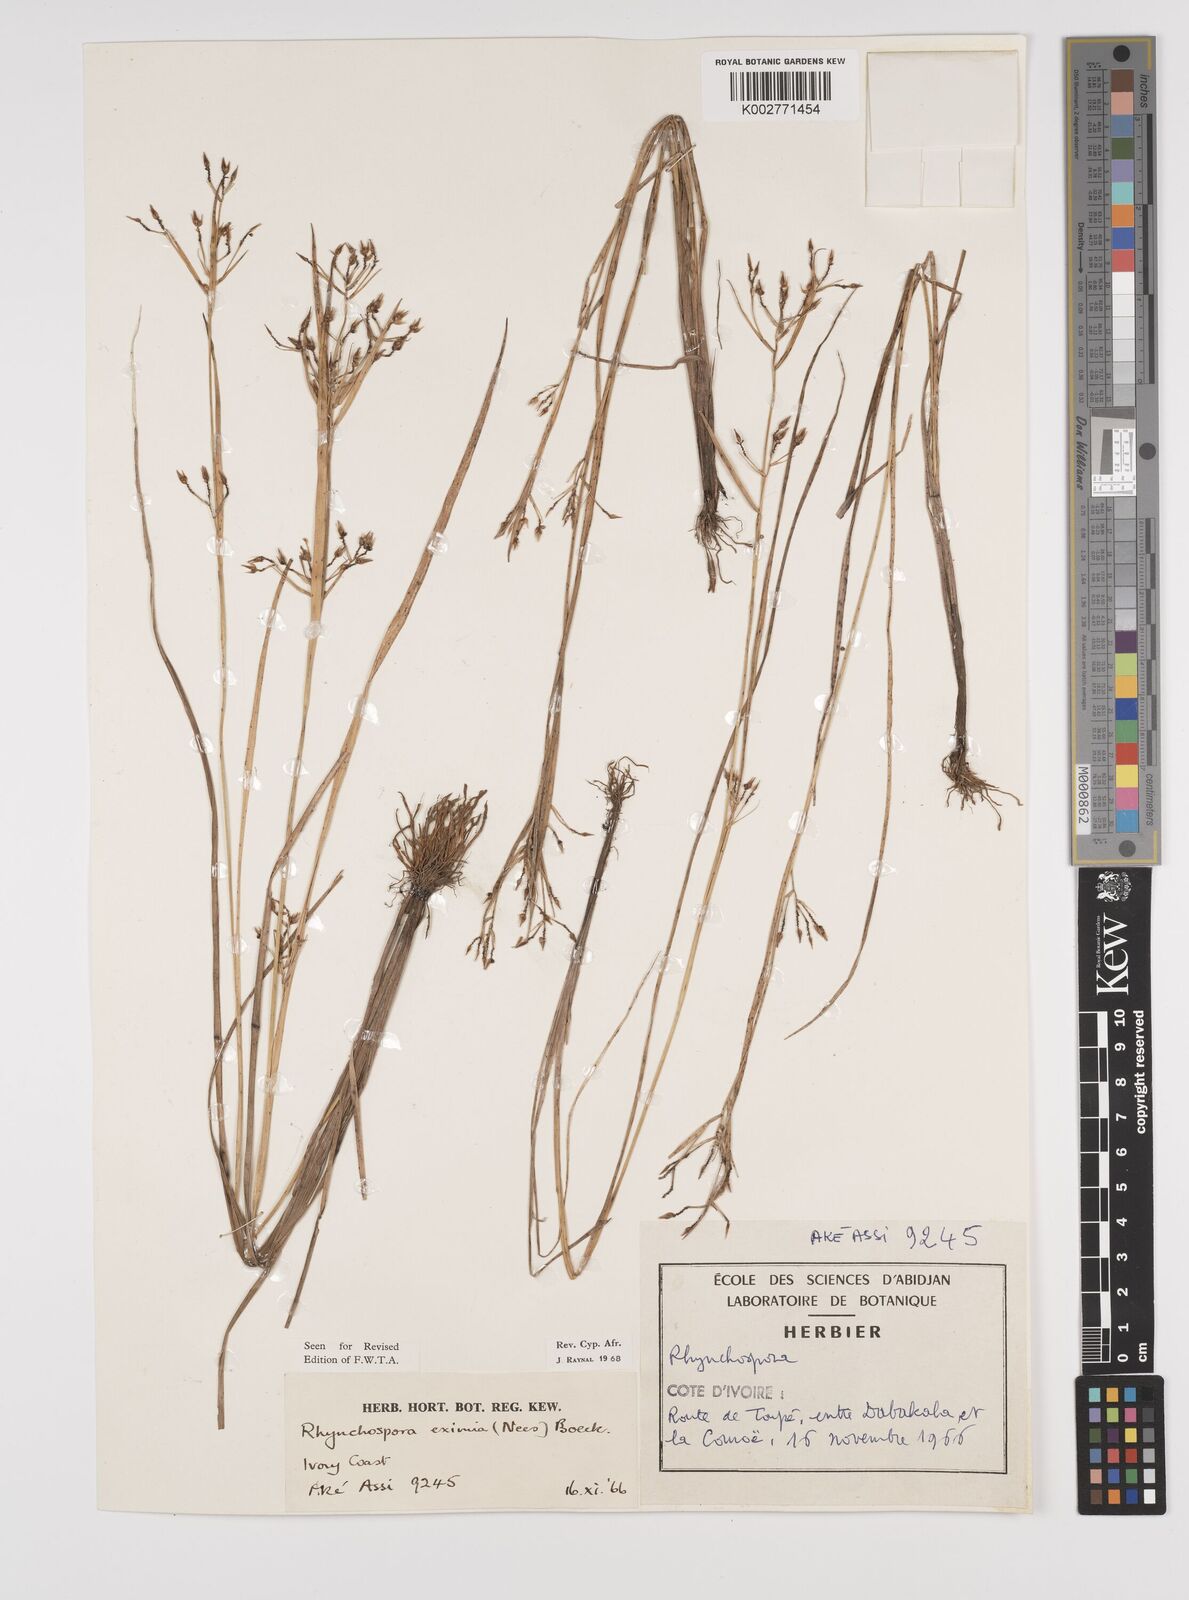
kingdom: Plantae
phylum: Tracheophyta
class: Liliopsida
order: Poales
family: Cyperaceae
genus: Rhynchospora
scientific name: Rhynchospora eximia
